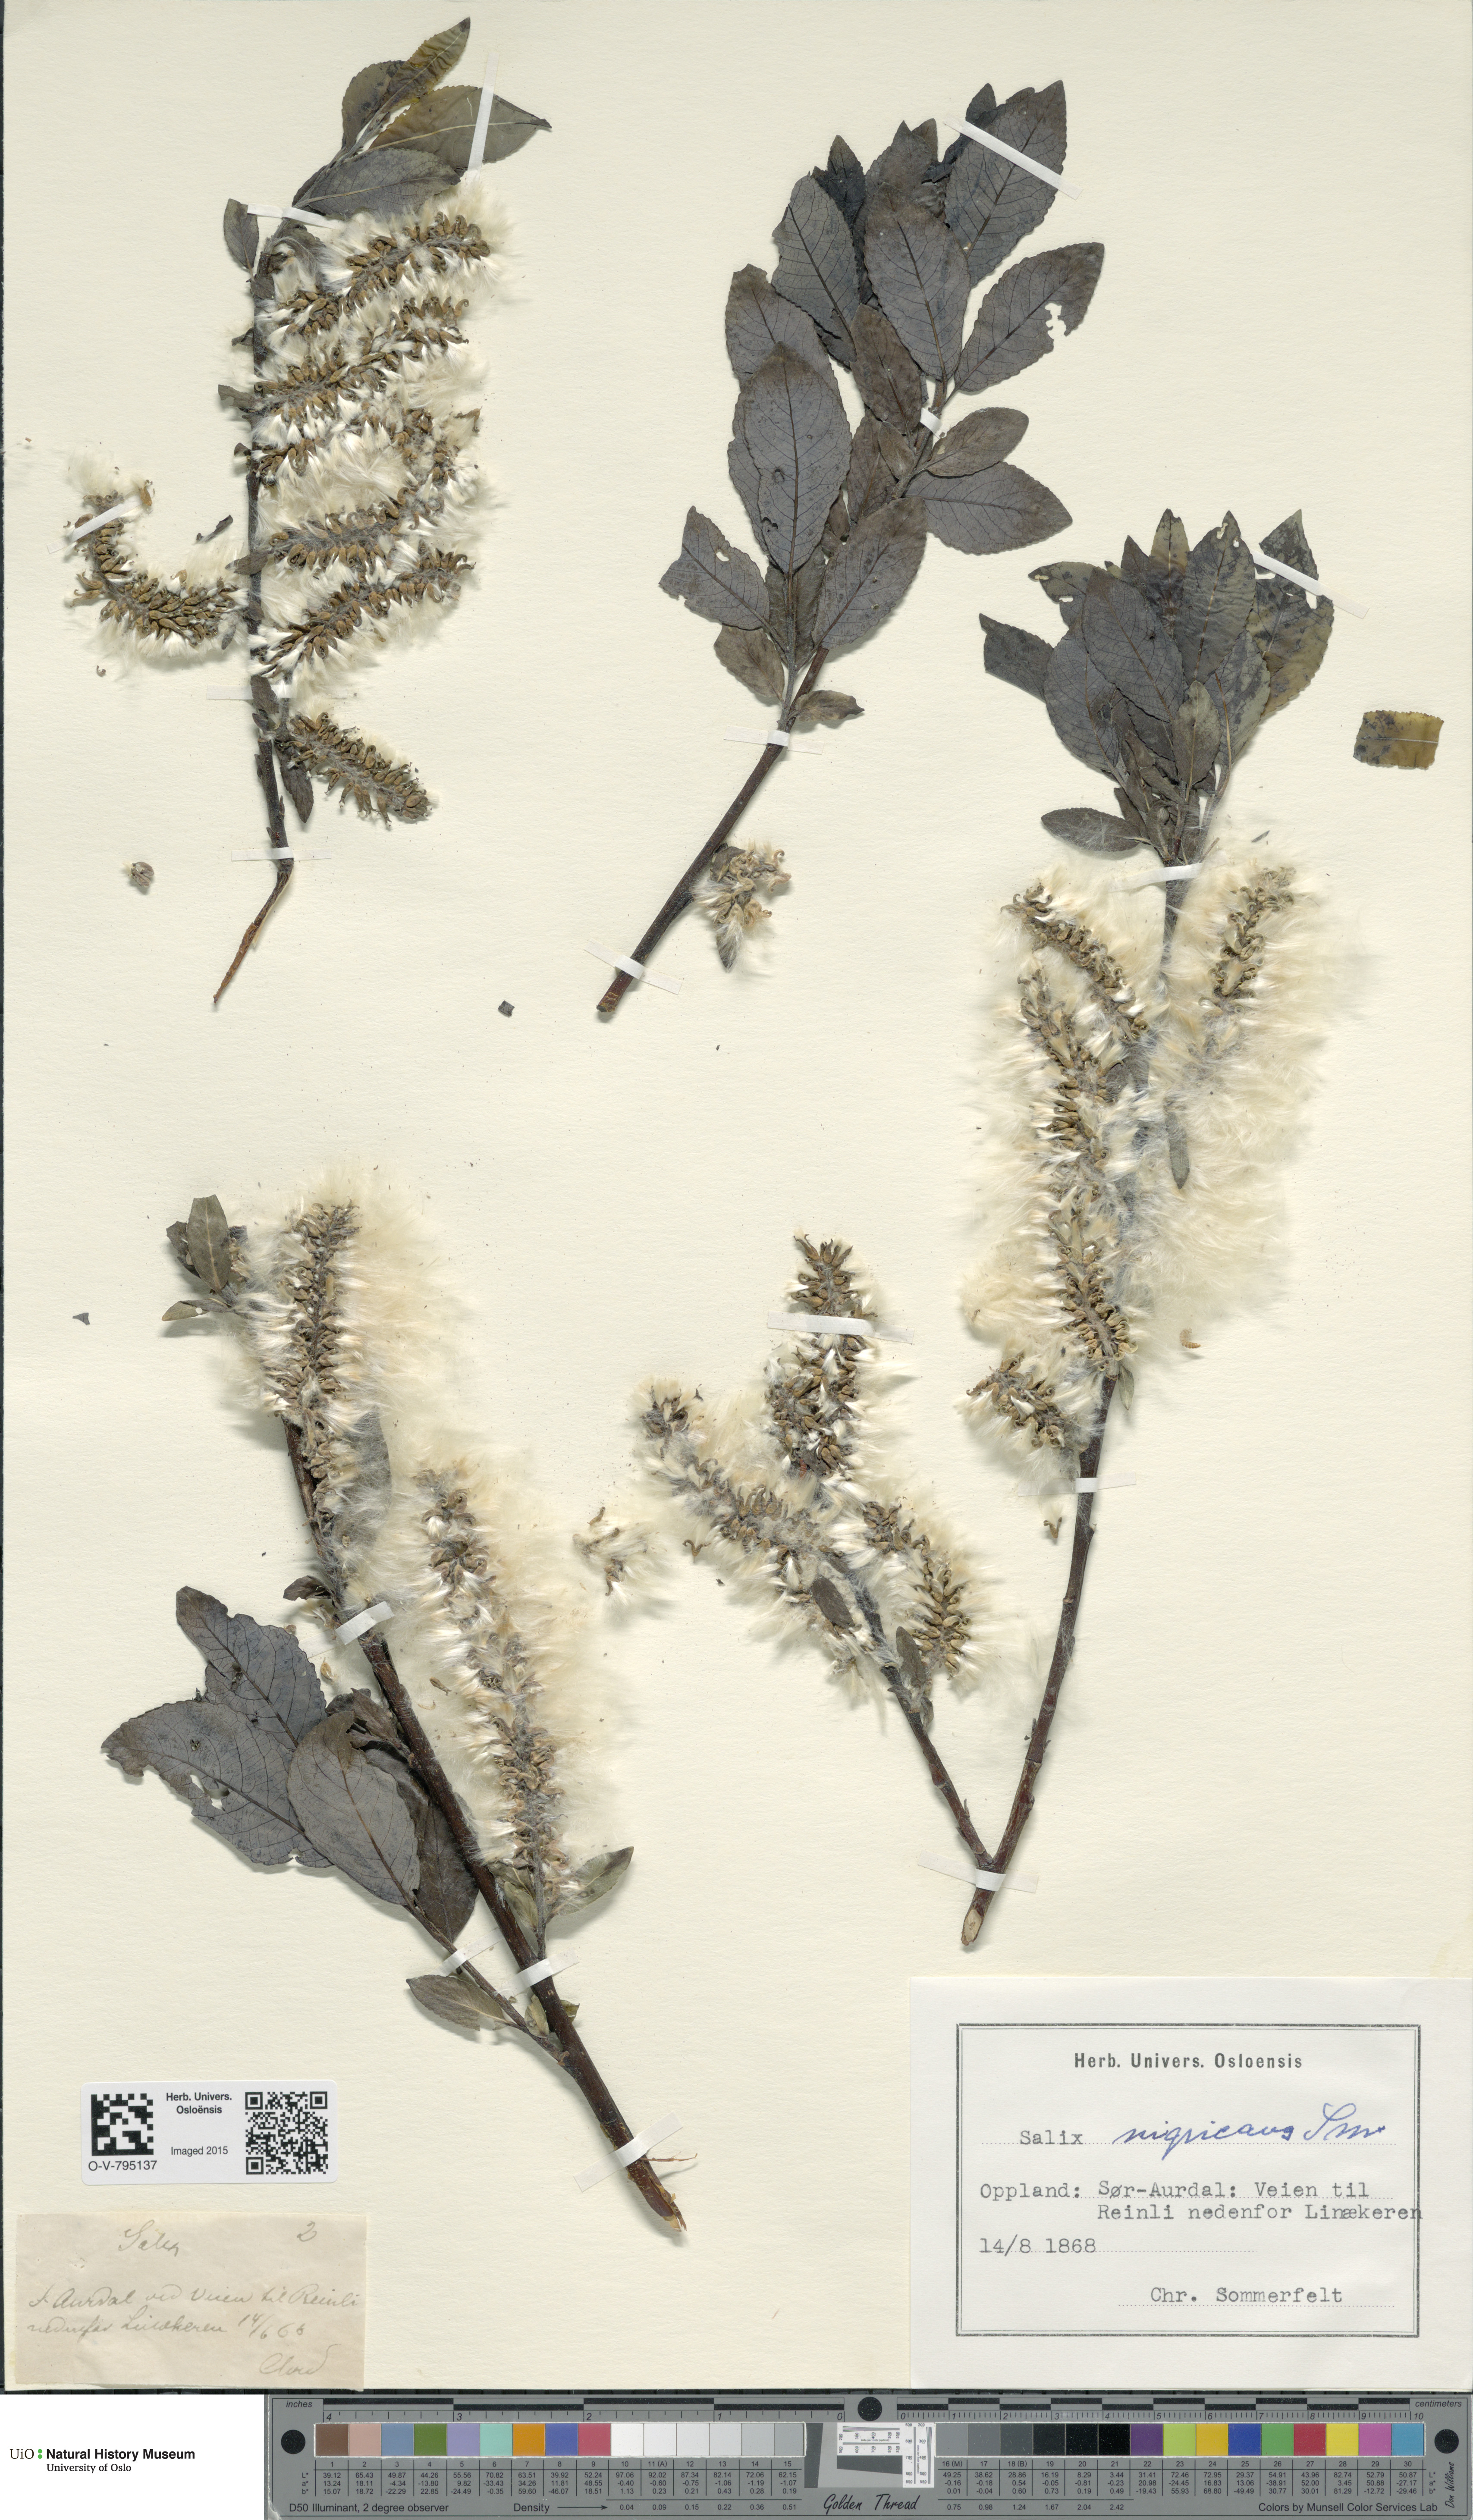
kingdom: Plantae
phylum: Tracheophyta
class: Magnoliopsida
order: Malpighiales
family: Salicaceae
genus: Salix
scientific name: Salix myrsinifolia
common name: Dark-leaved willow
